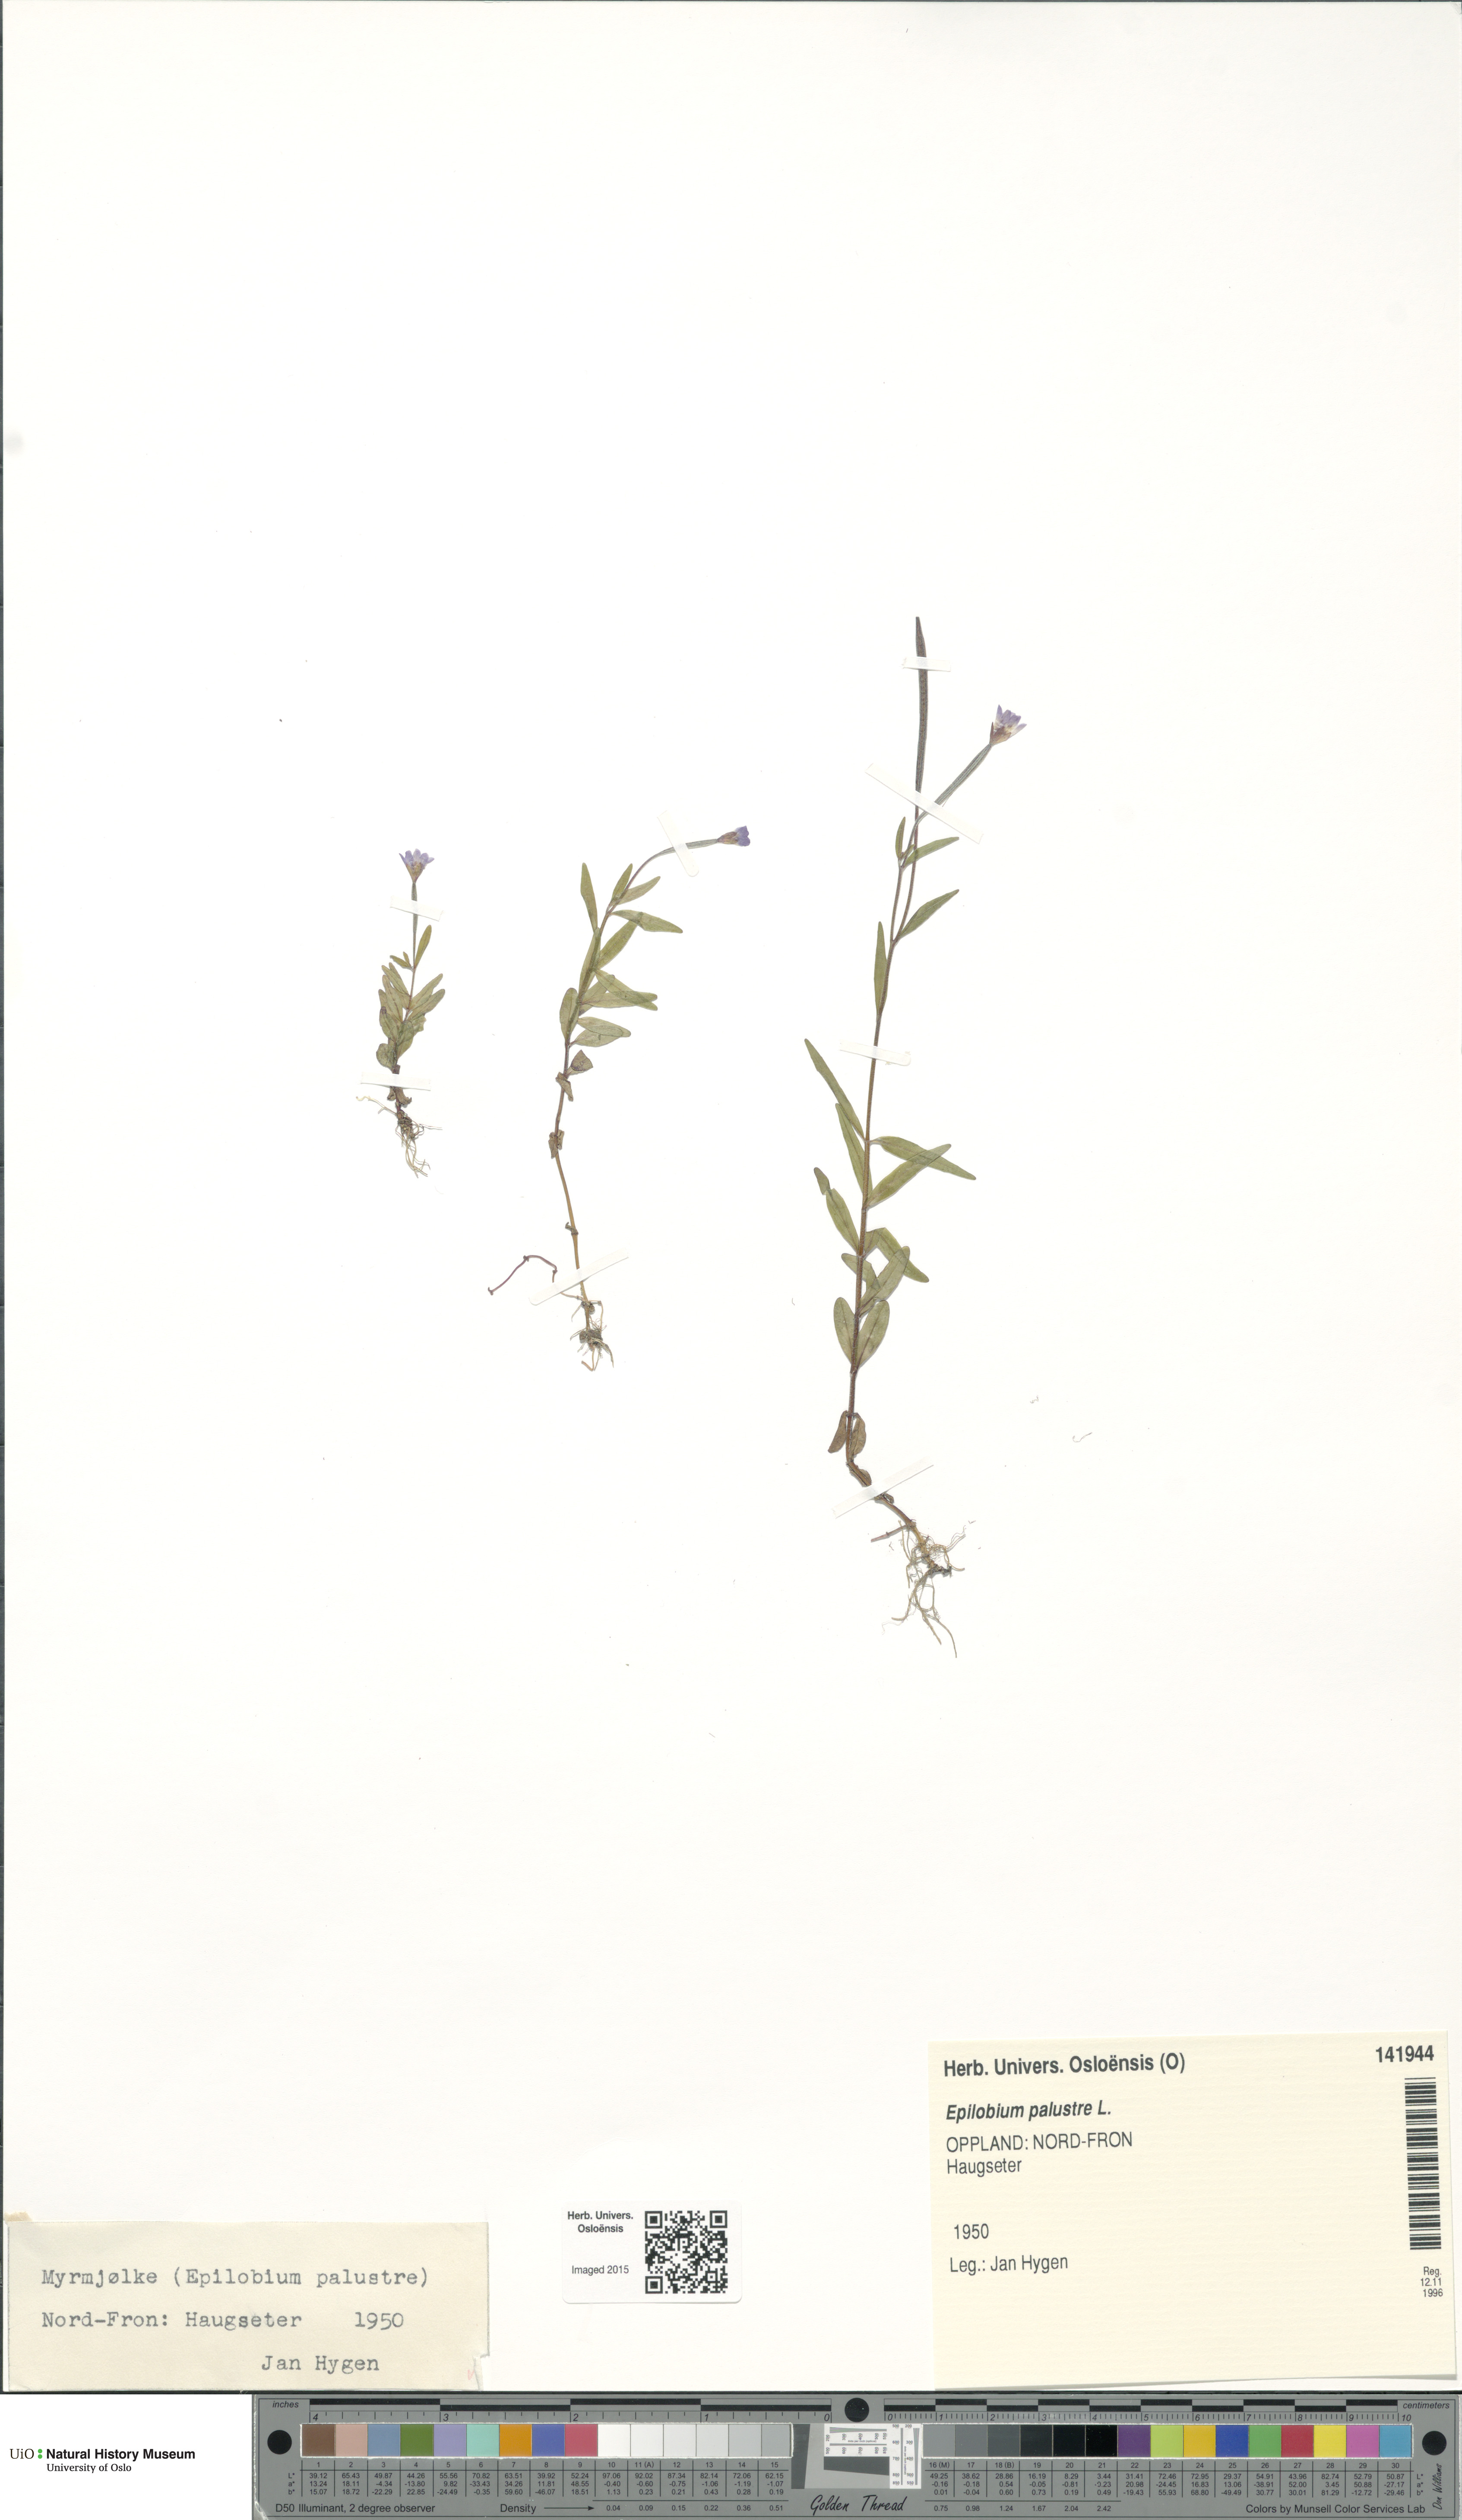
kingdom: Plantae
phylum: Tracheophyta
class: Magnoliopsida
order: Myrtales
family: Onagraceae
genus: Epilobium
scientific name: Epilobium palustre
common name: Marsh willowherb
